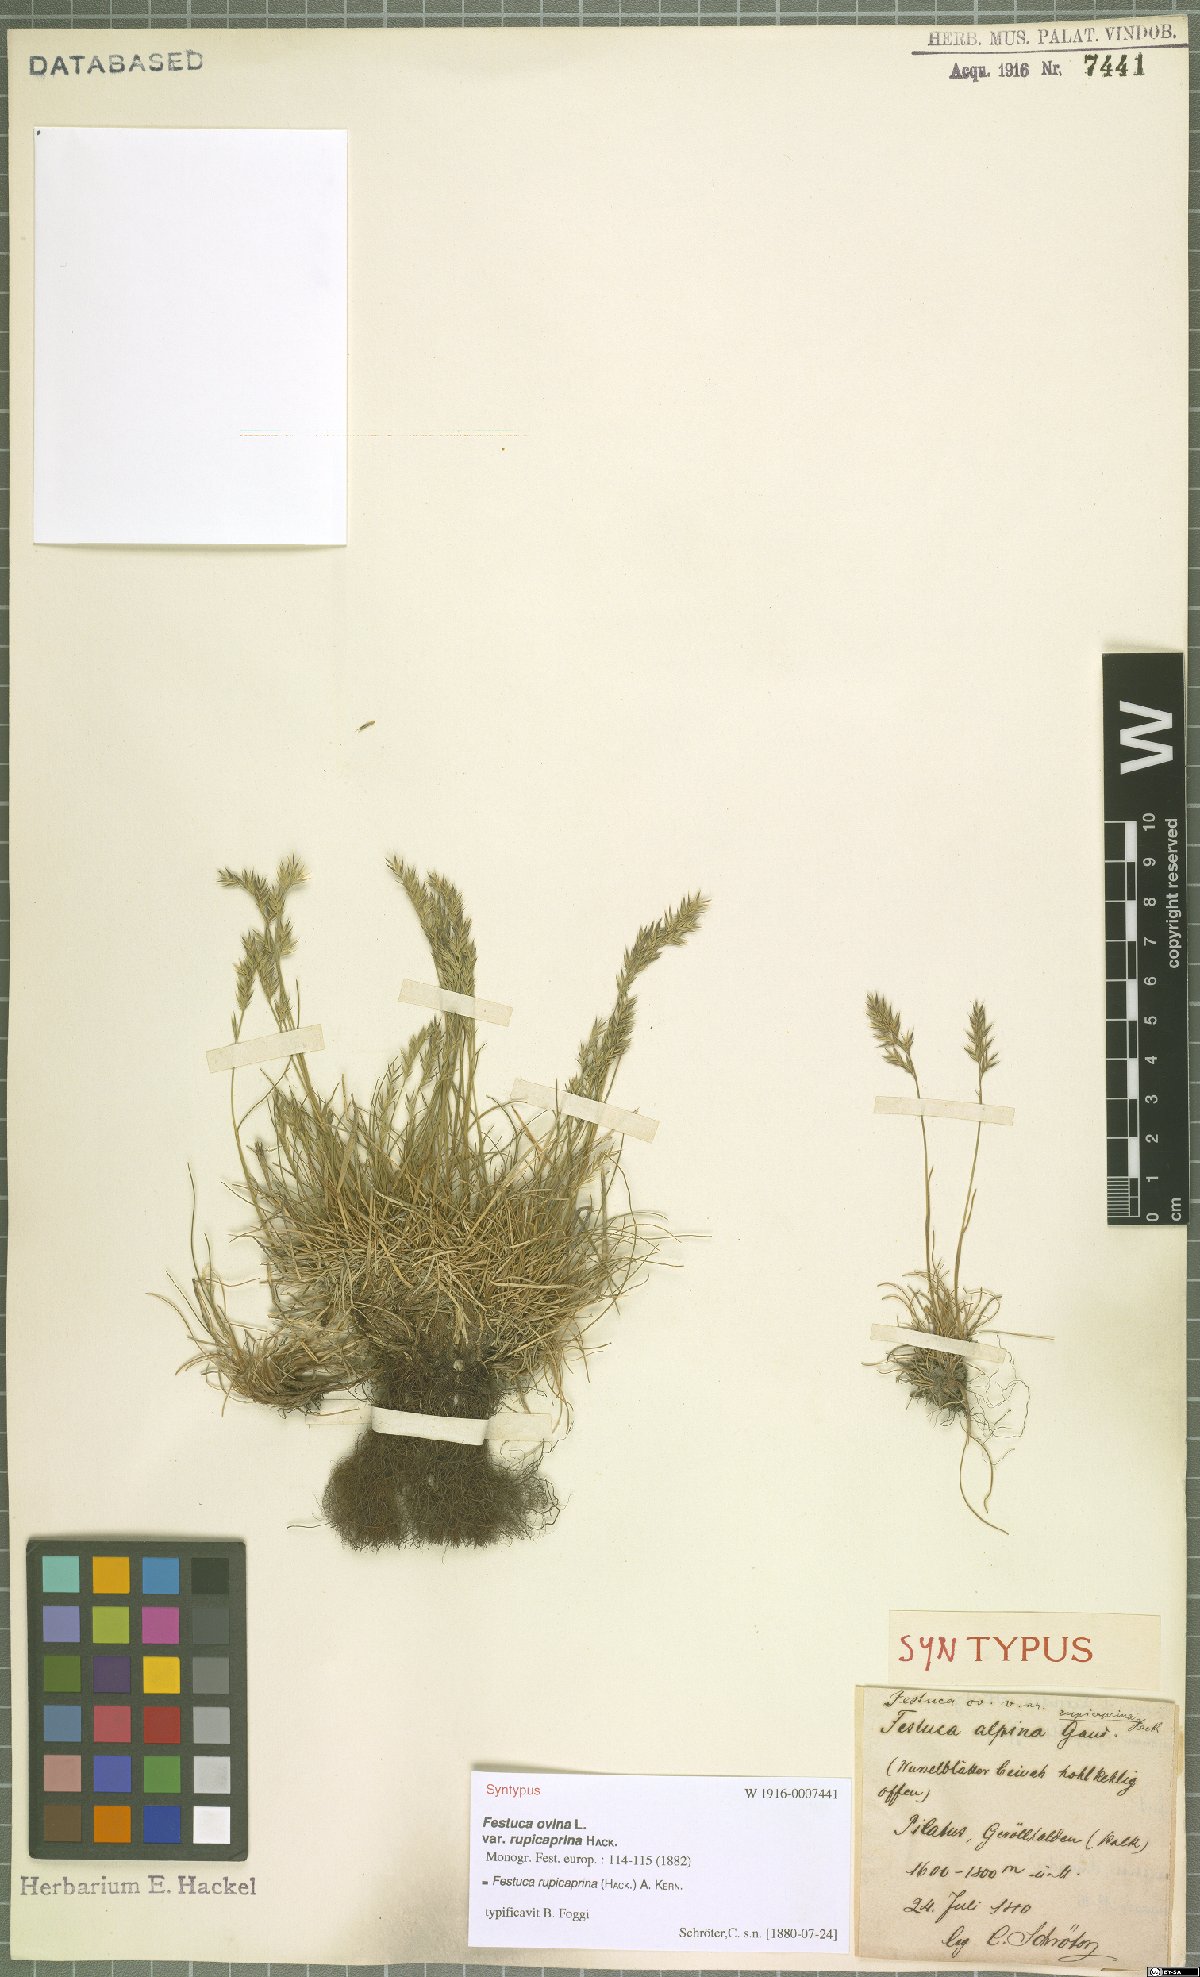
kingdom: Plantae
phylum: Tracheophyta
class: Liliopsida
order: Poales
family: Poaceae
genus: Festuca
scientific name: Festuca rupicaprina
